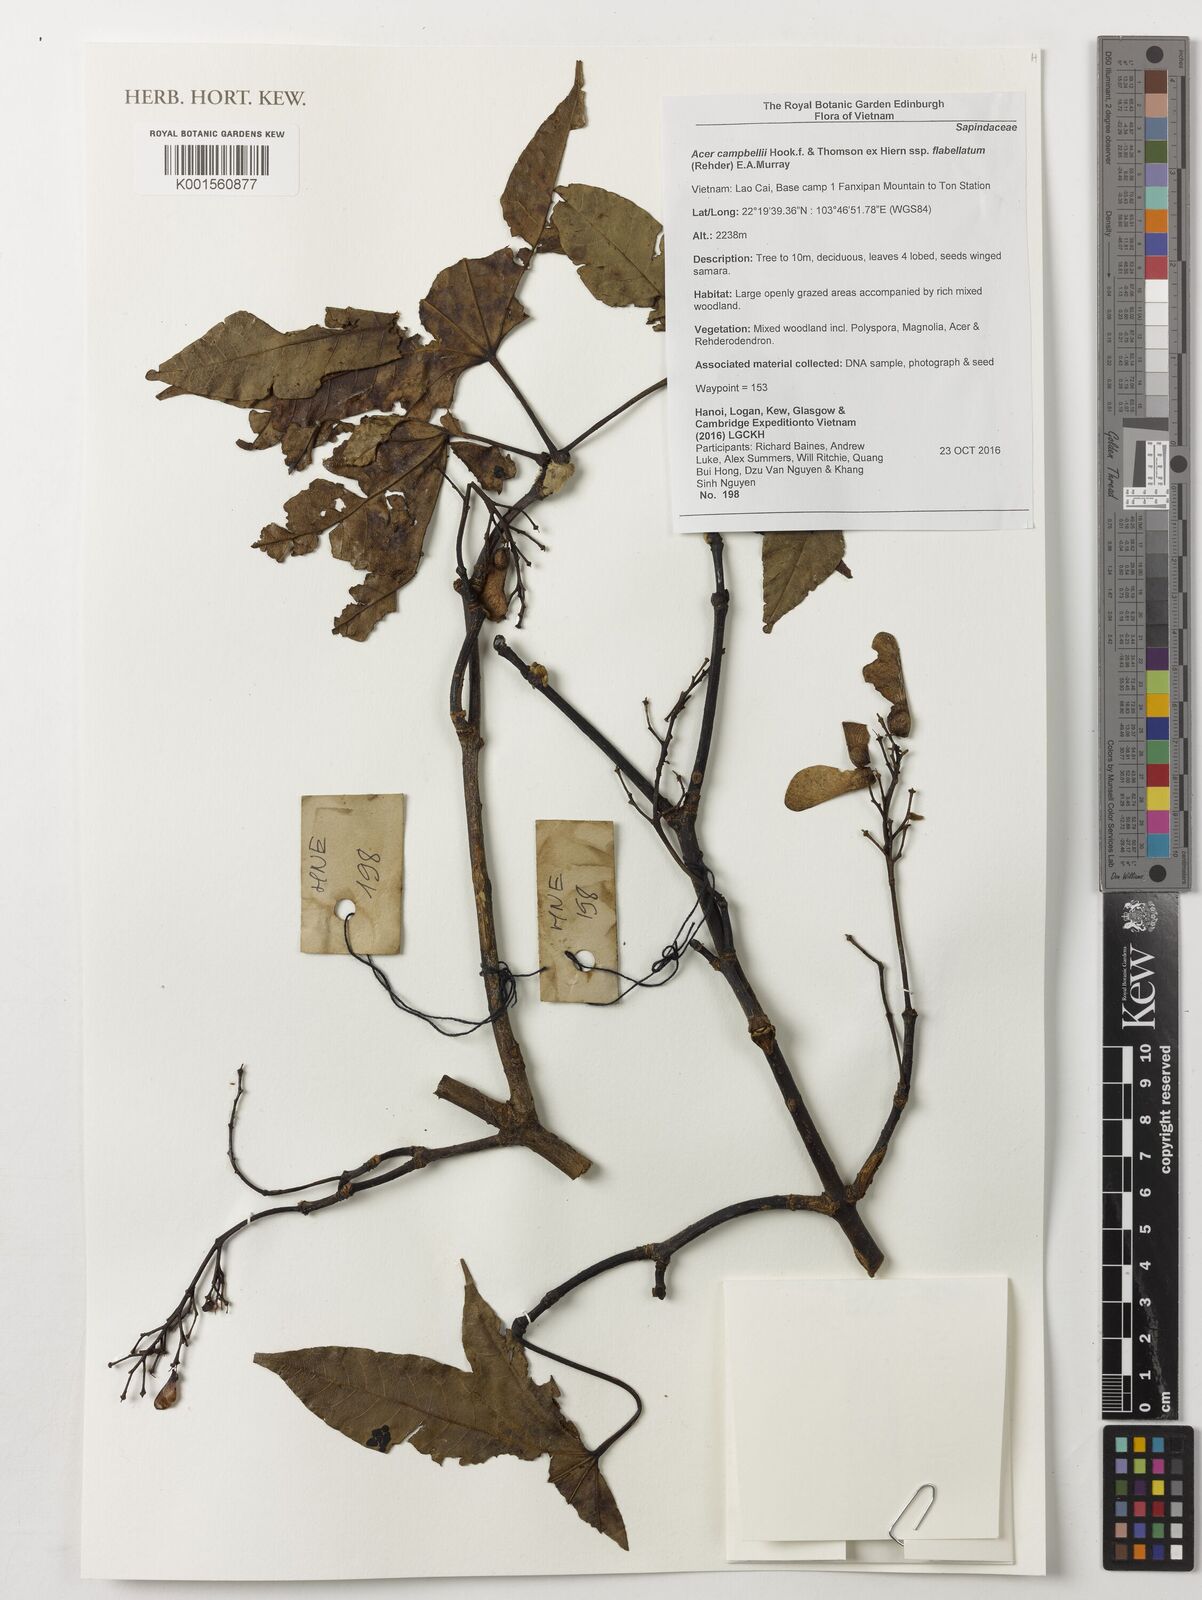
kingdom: Plantae
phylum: Tracheophyta
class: Magnoliopsida
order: Sapindales
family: Sapindaceae
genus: Acer
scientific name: Acer campbellii
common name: Campbell's maple
